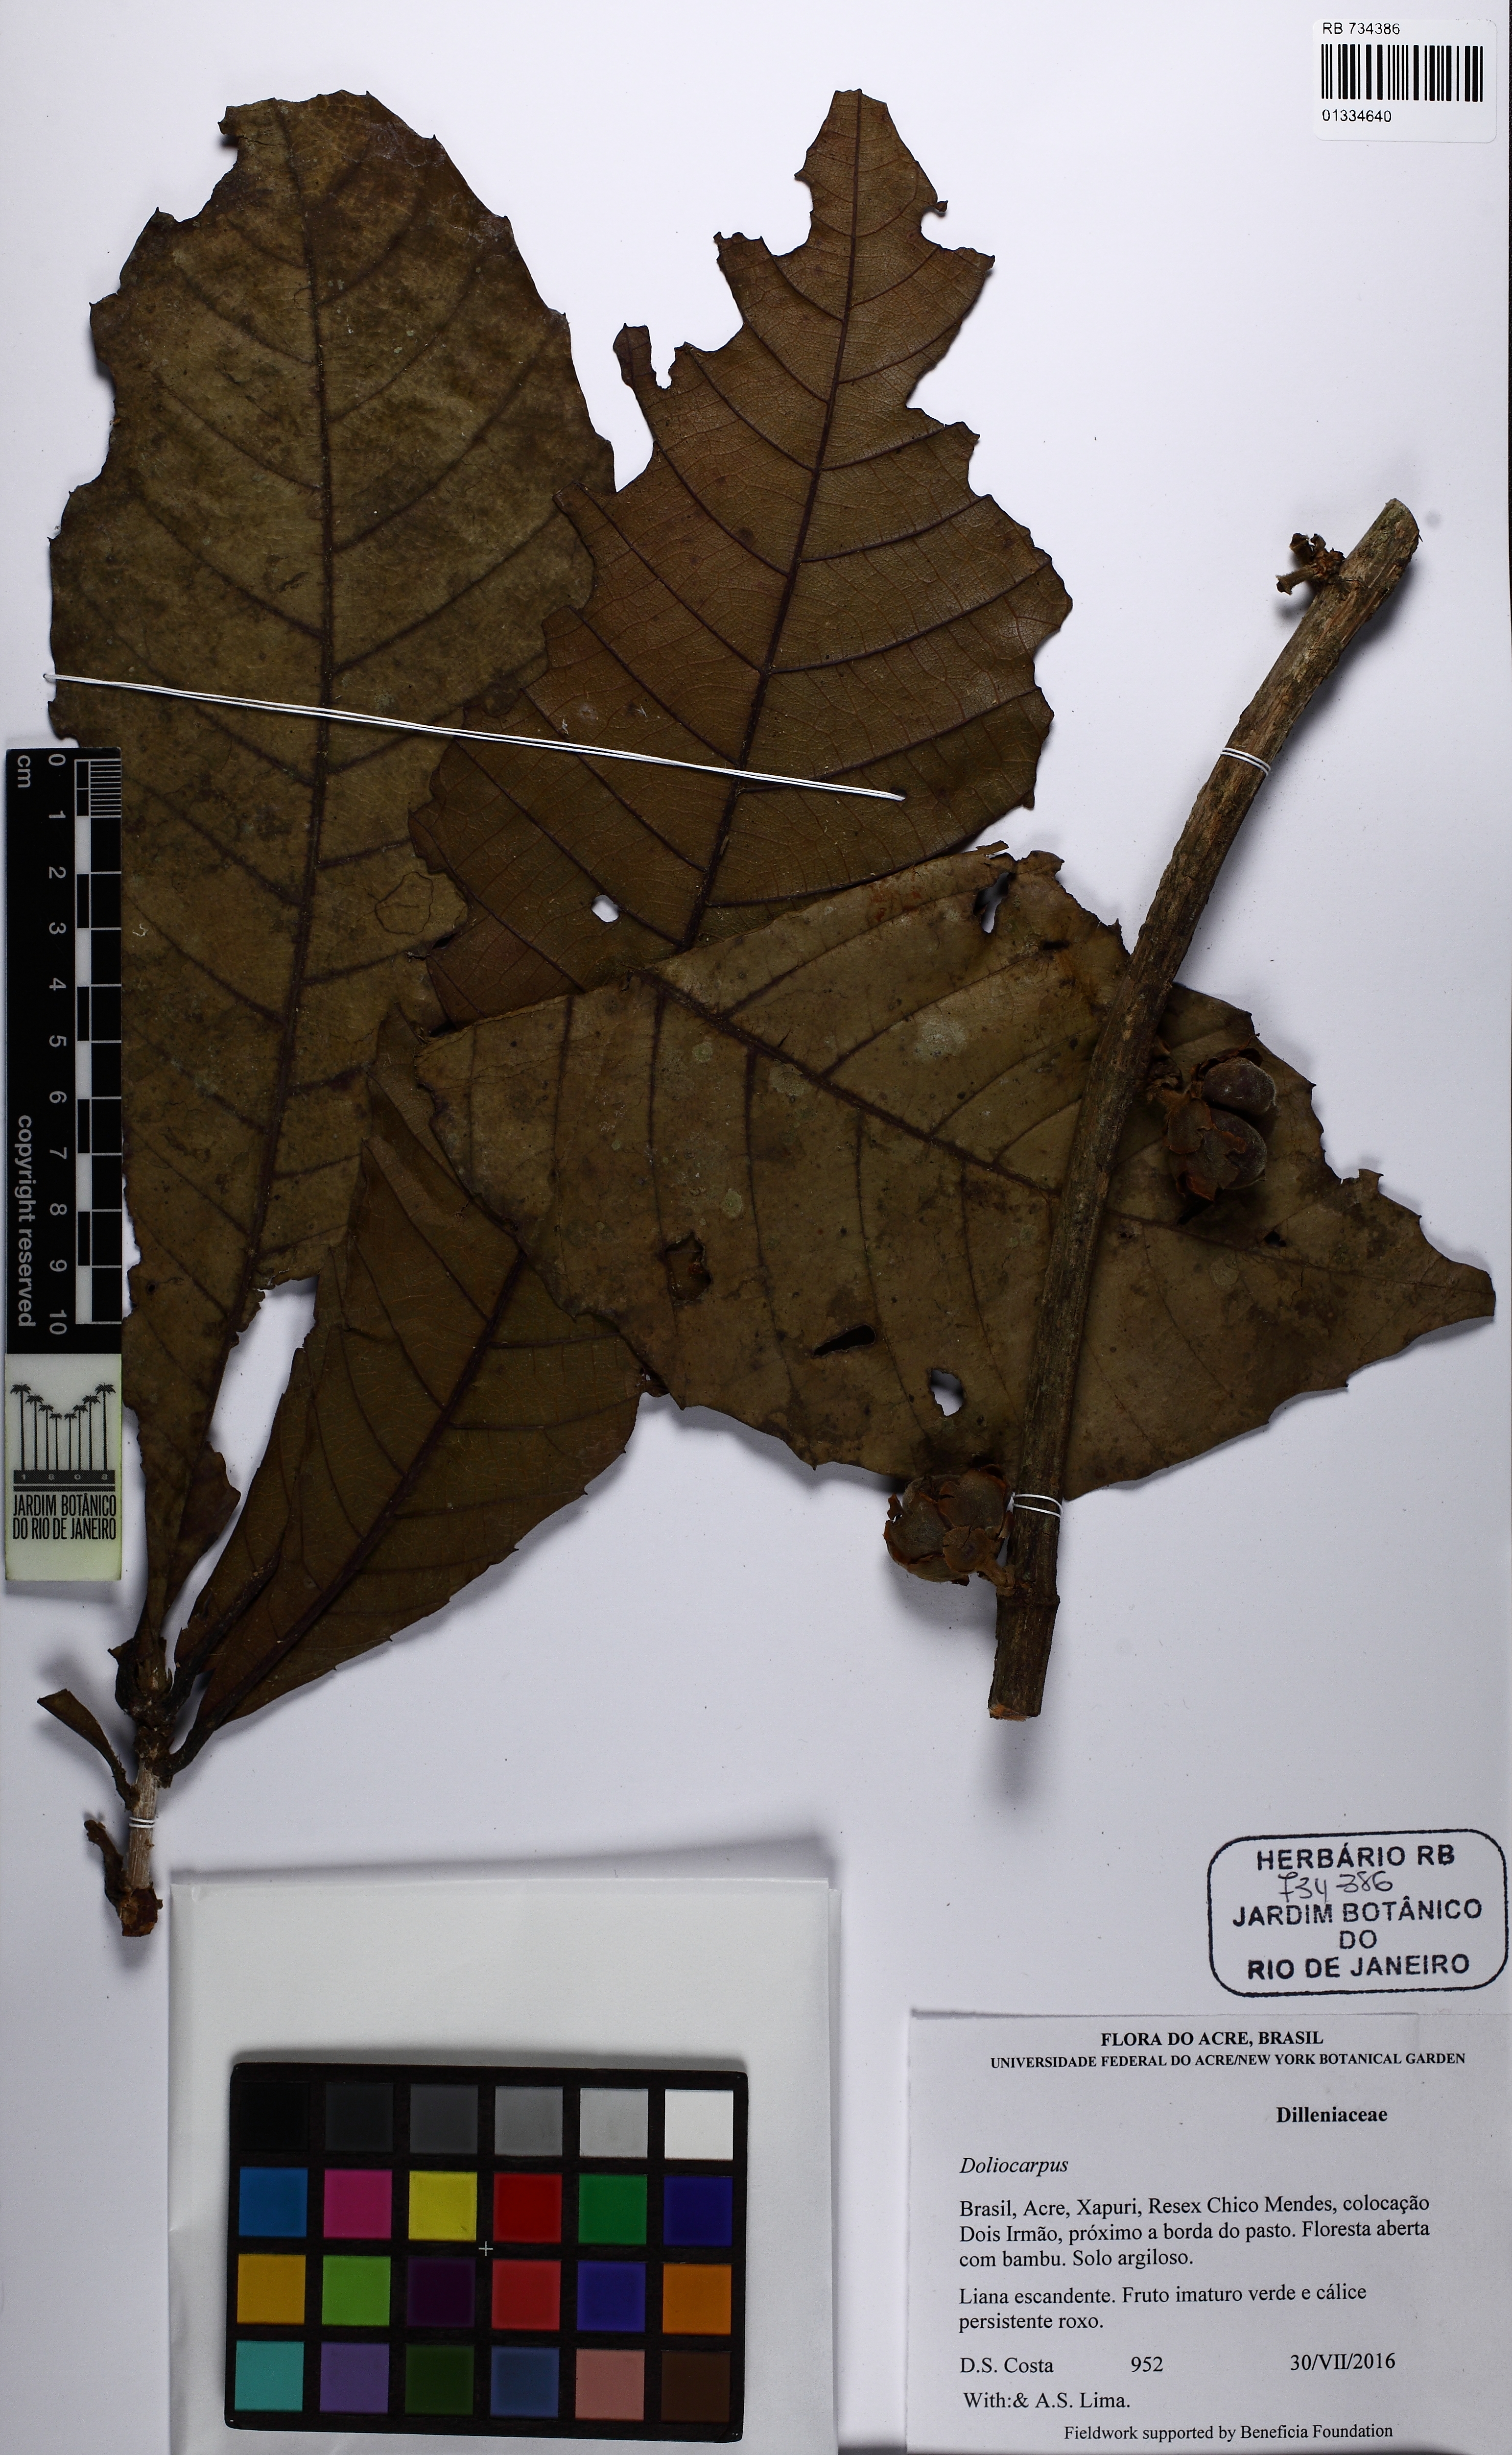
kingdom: Plantae
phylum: Tracheophyta
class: Magnoliopsida
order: Dilleniales
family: Dilleniaceae
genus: Doliocarpus
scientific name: Doliocarpus magnificus
